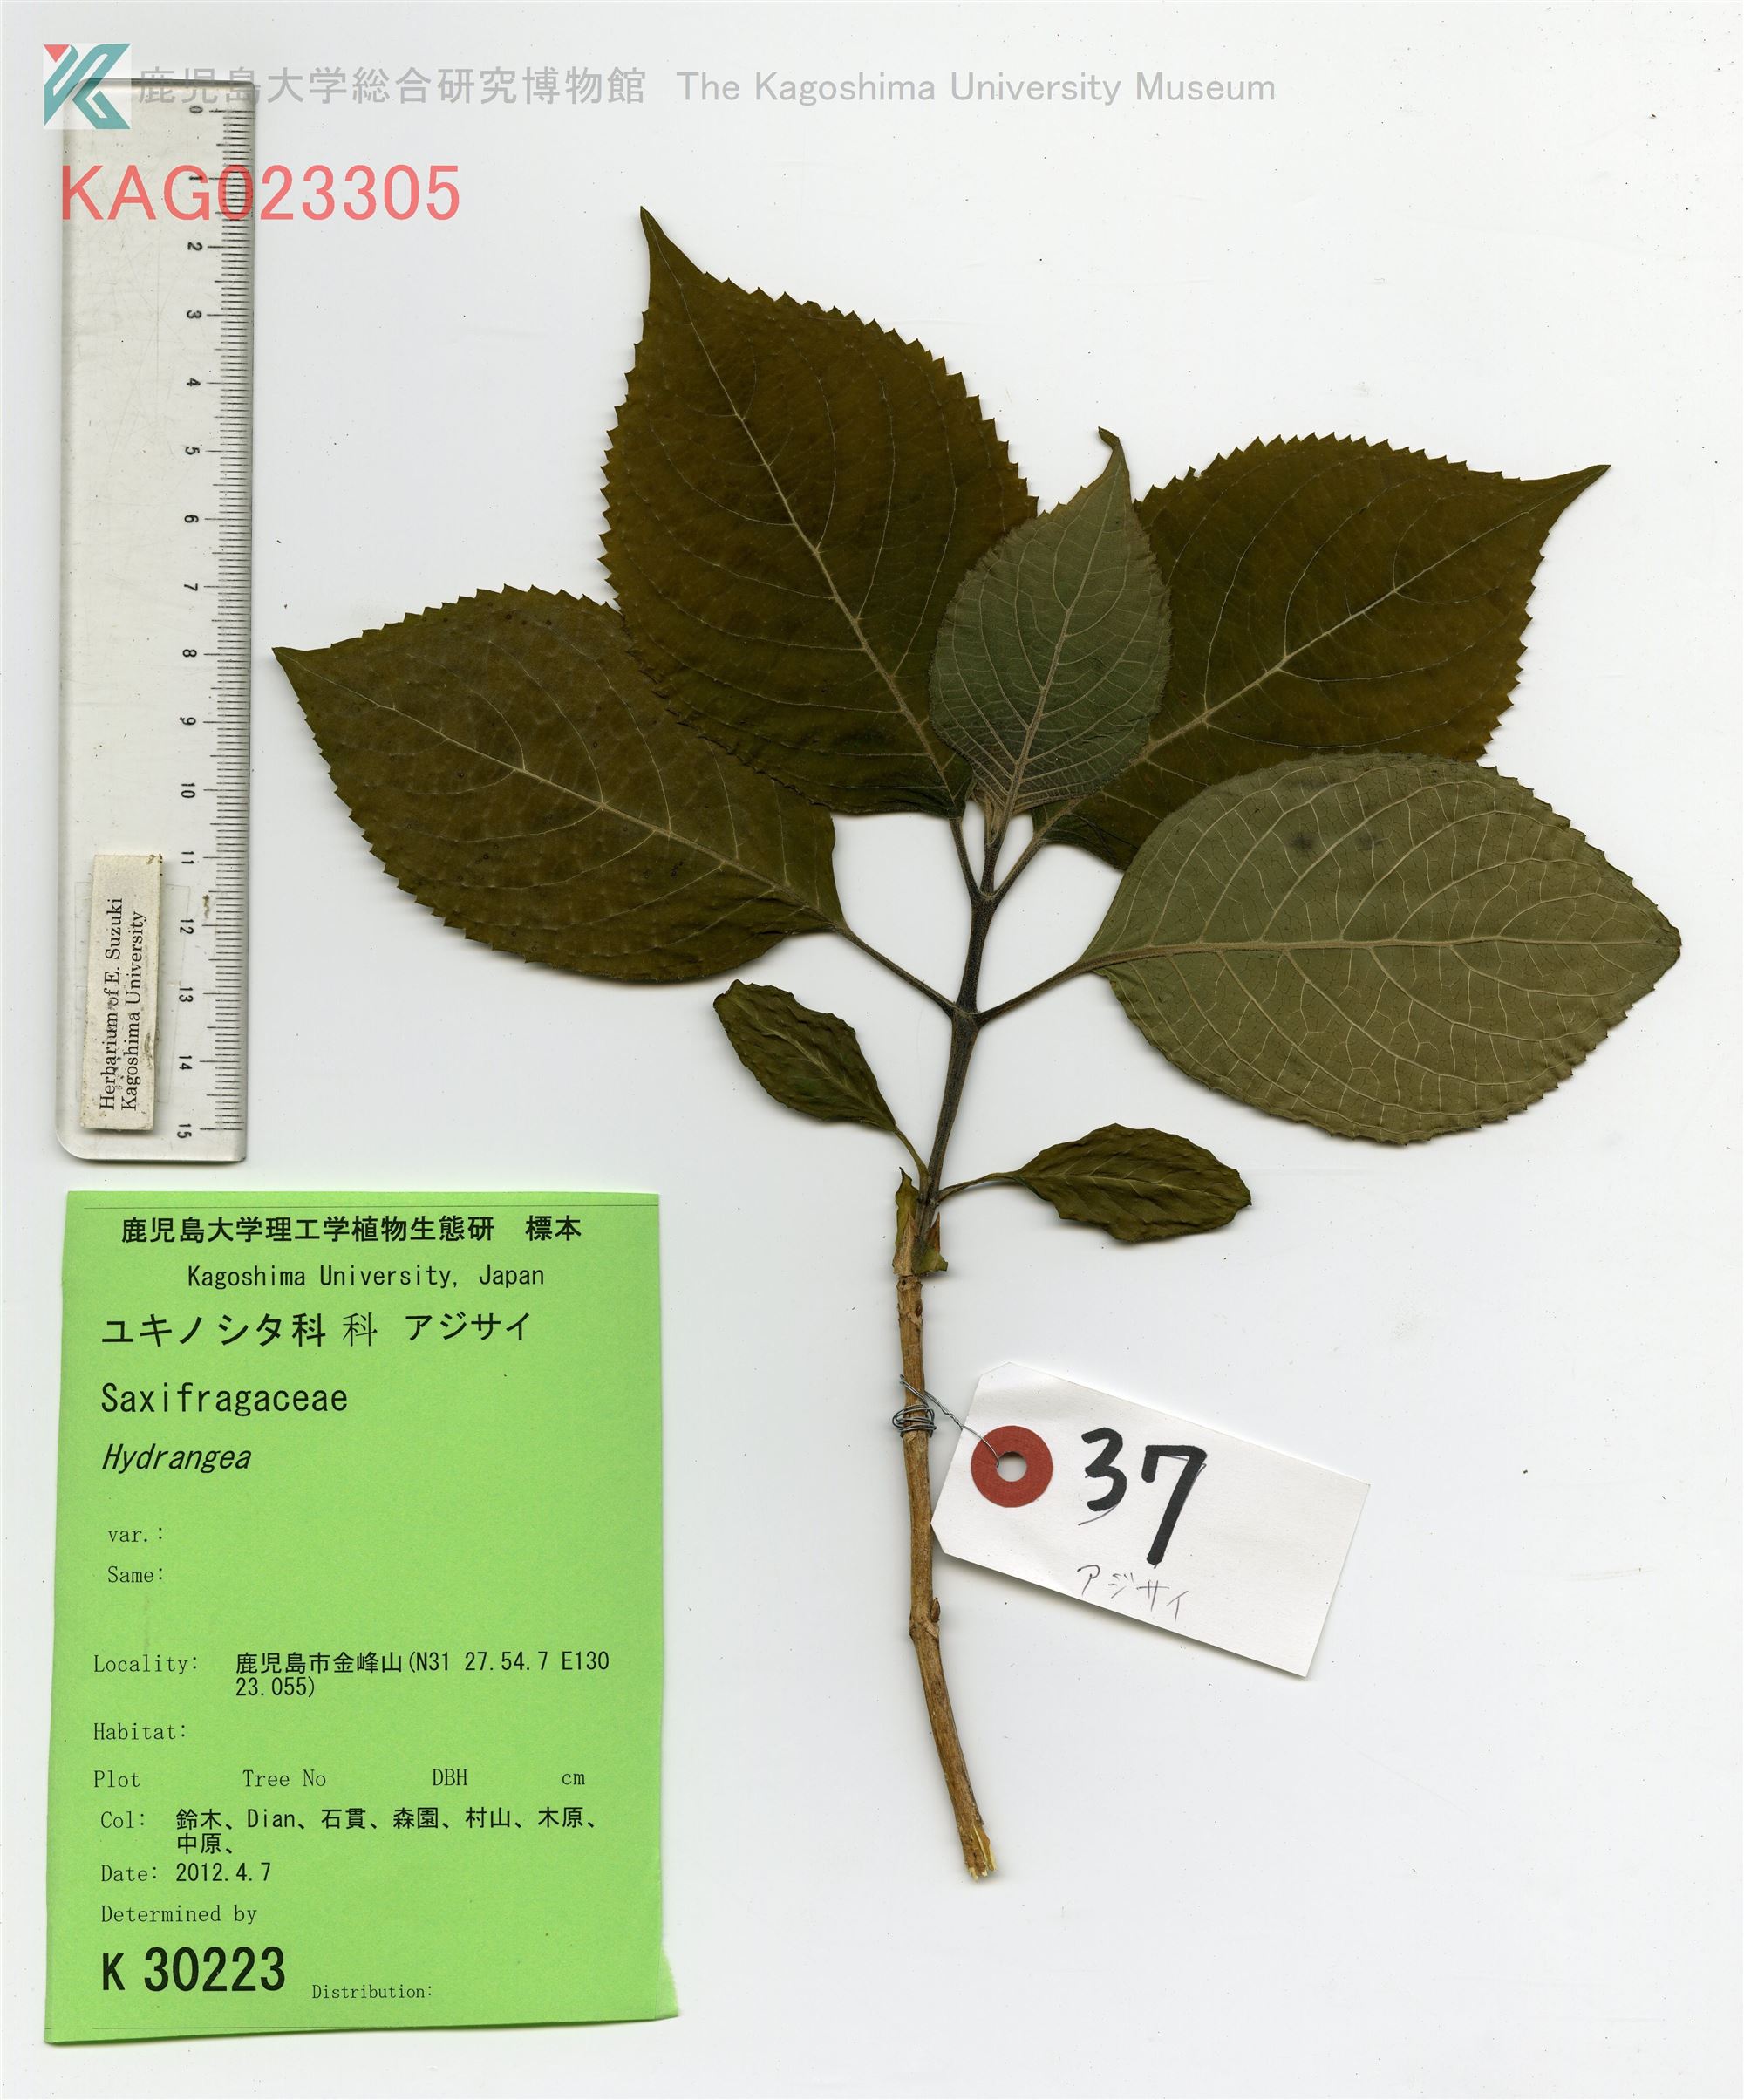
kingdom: Plantae
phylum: Tracheophyta
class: Magnoliopsida
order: Cornales
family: Hydrangeaceae
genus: Hydrangea
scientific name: Hydrangea serrata
